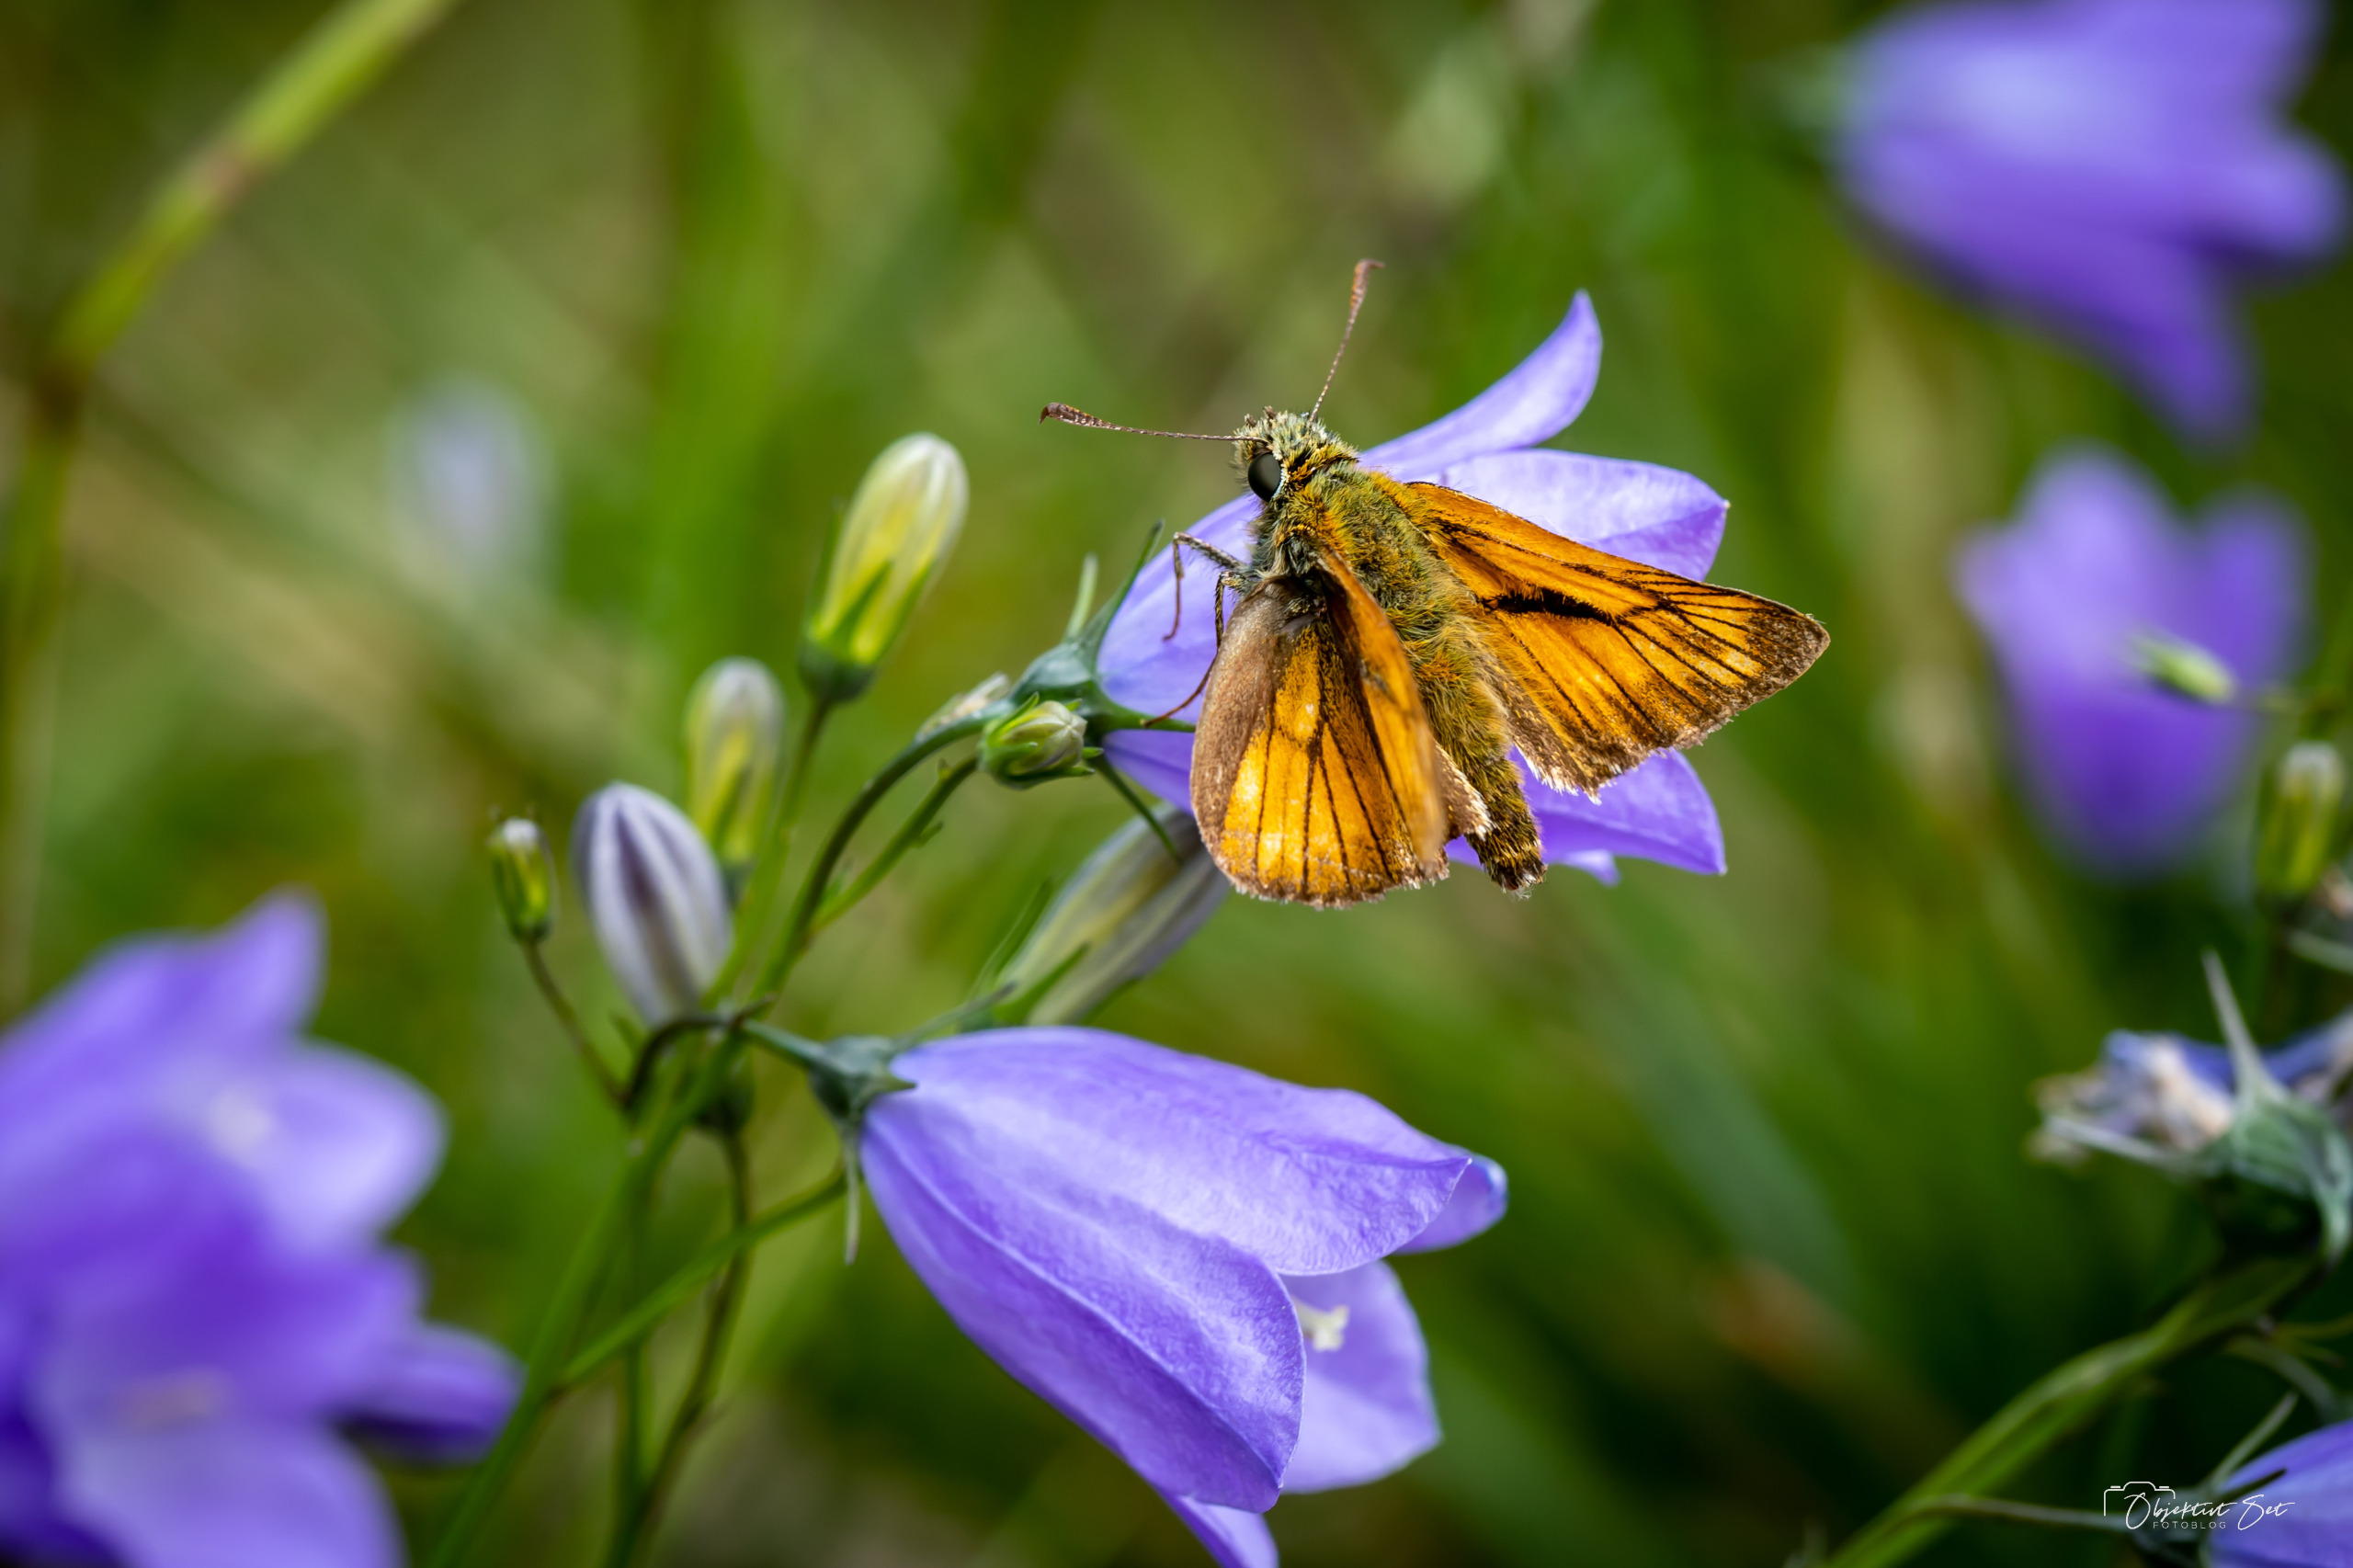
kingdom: Animalia
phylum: Arthropoda
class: Insecta
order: Lepidoptera
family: Hesperiidae
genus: Ochlodes
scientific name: Ochlodes venata
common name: Stor bredpande
